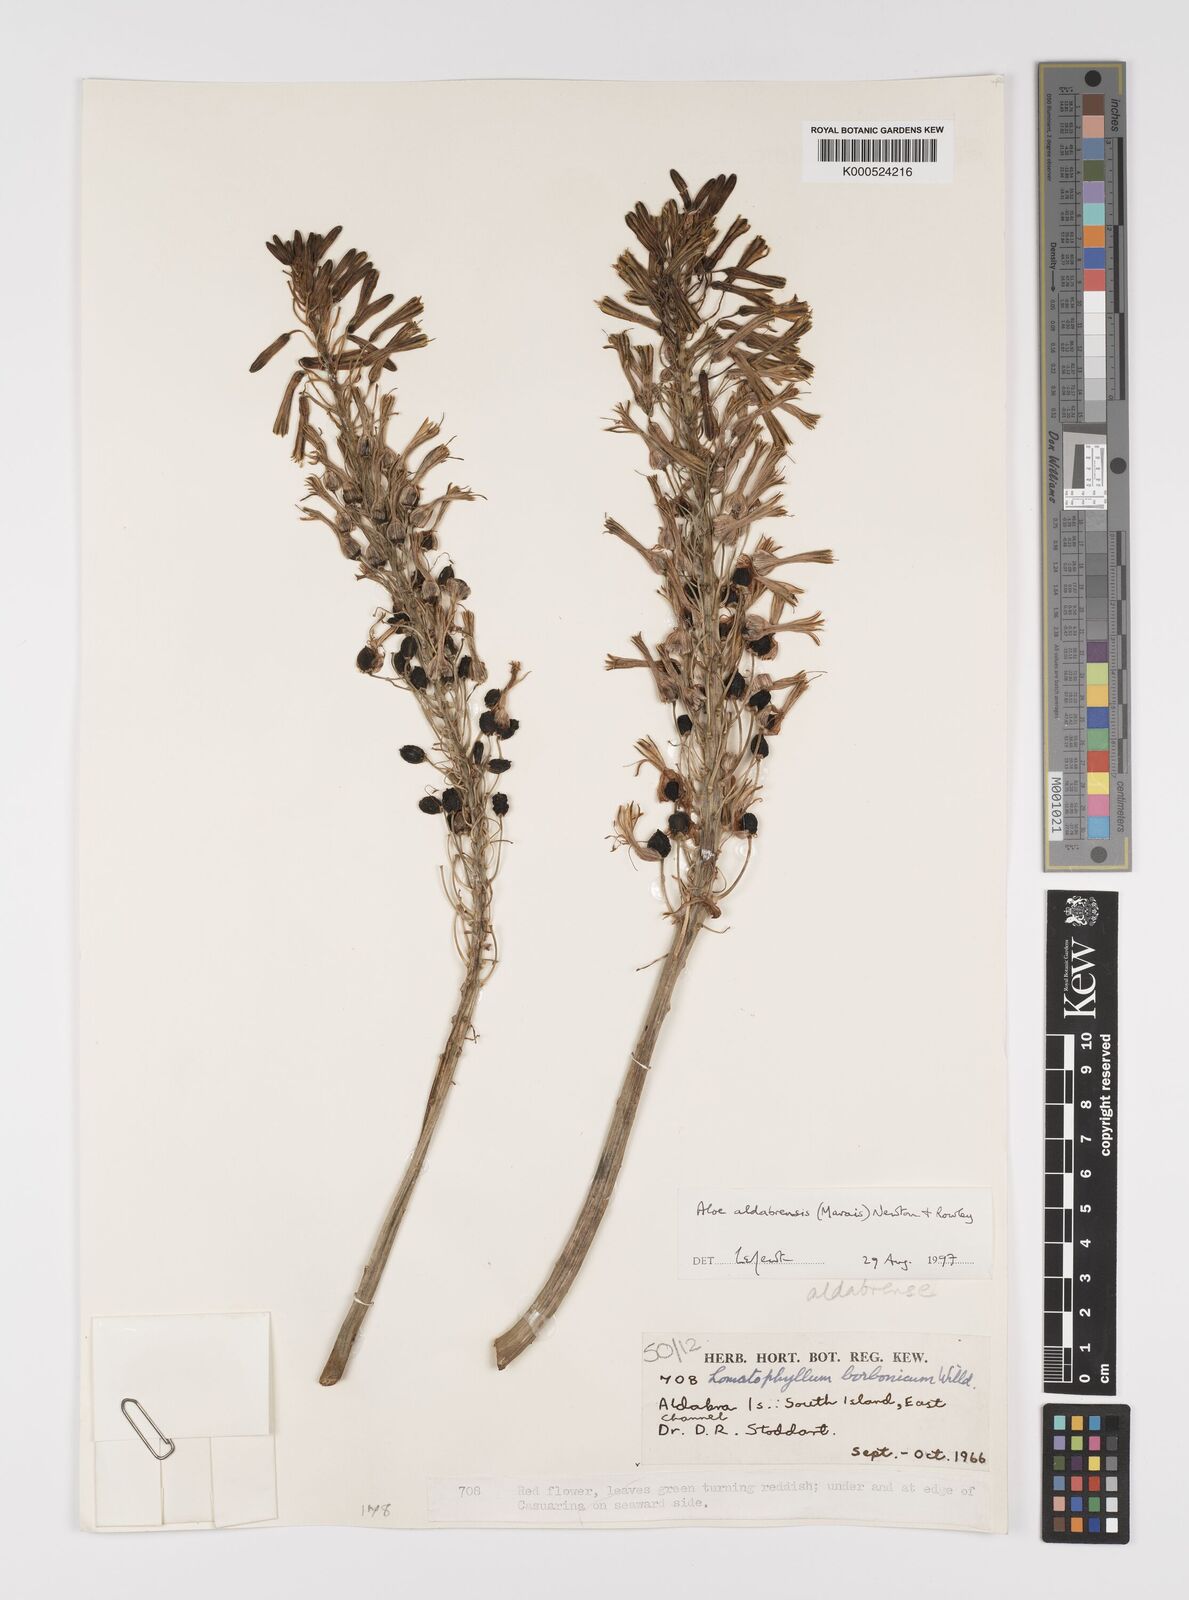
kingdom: Plantae
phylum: Tracheophyta
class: Liliopsida
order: Asparagales
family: Asphodelaceae
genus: Aloe
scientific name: Aloe aldabrensis
